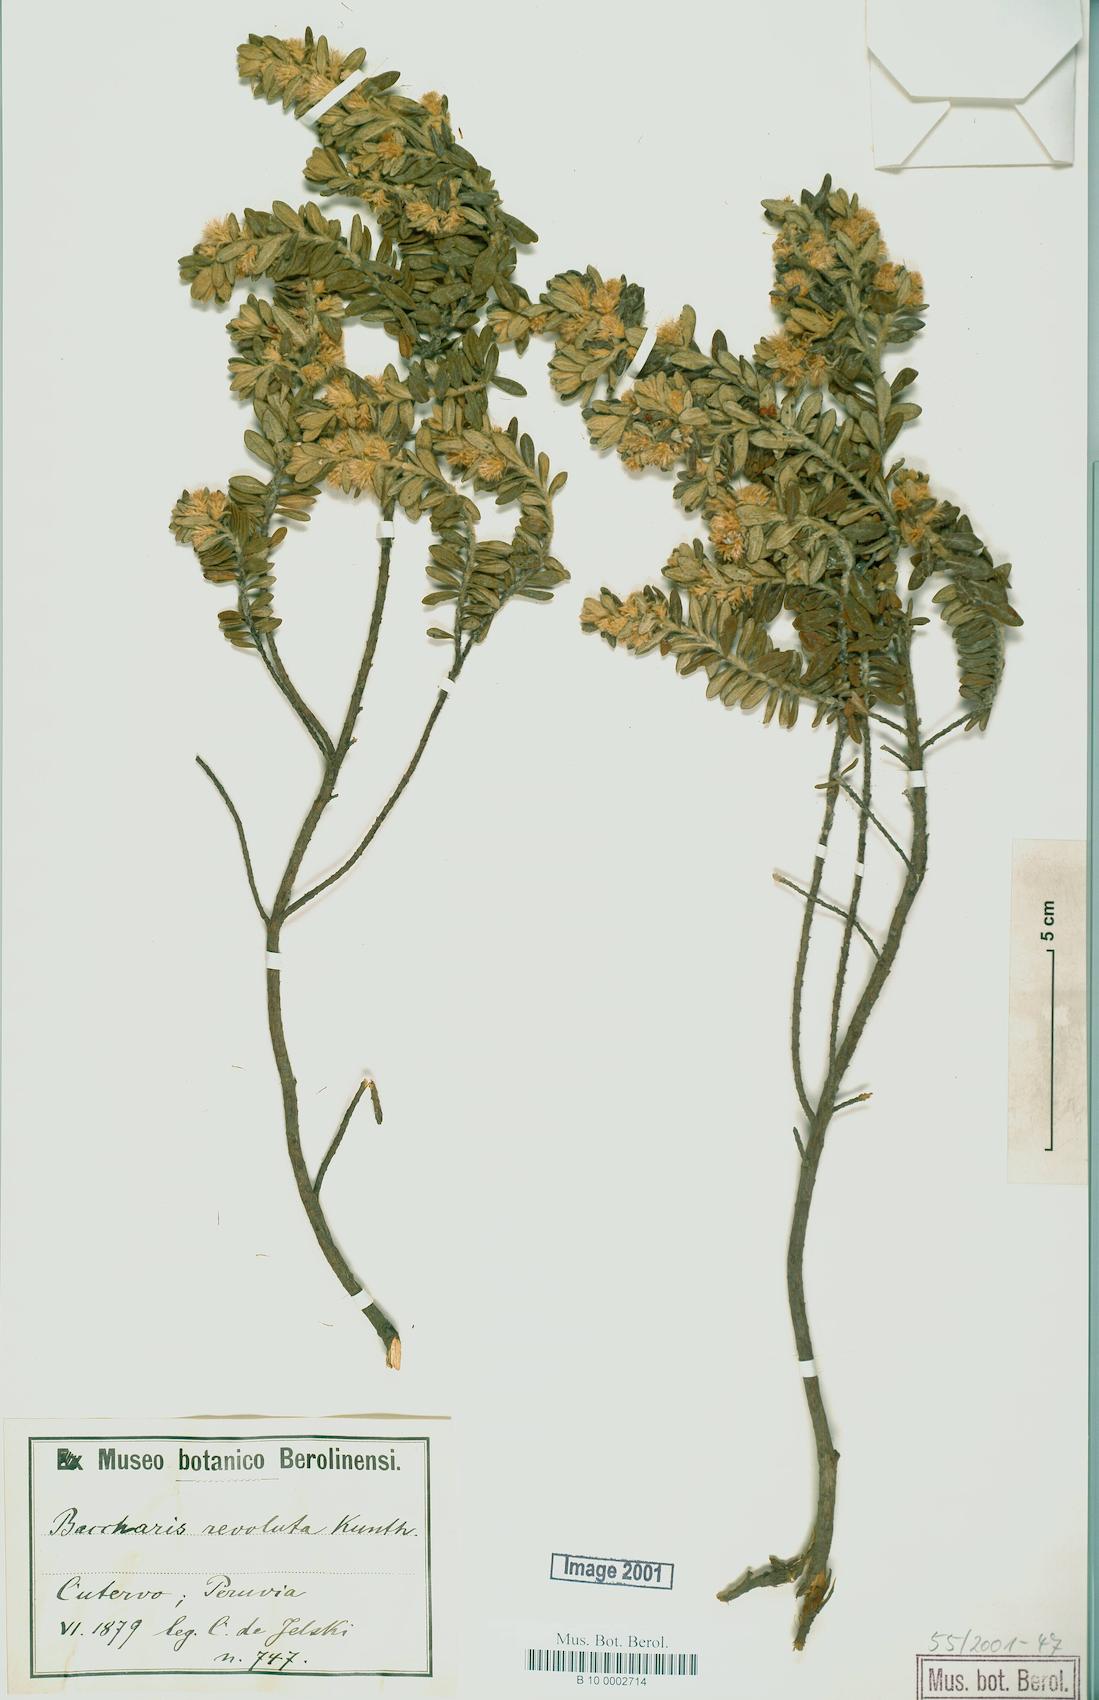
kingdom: Plantae
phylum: Tracheophyta
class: Magnoliopsida
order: Asterales
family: Asteraceae
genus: Baccharis
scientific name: Baccharis revoluta
